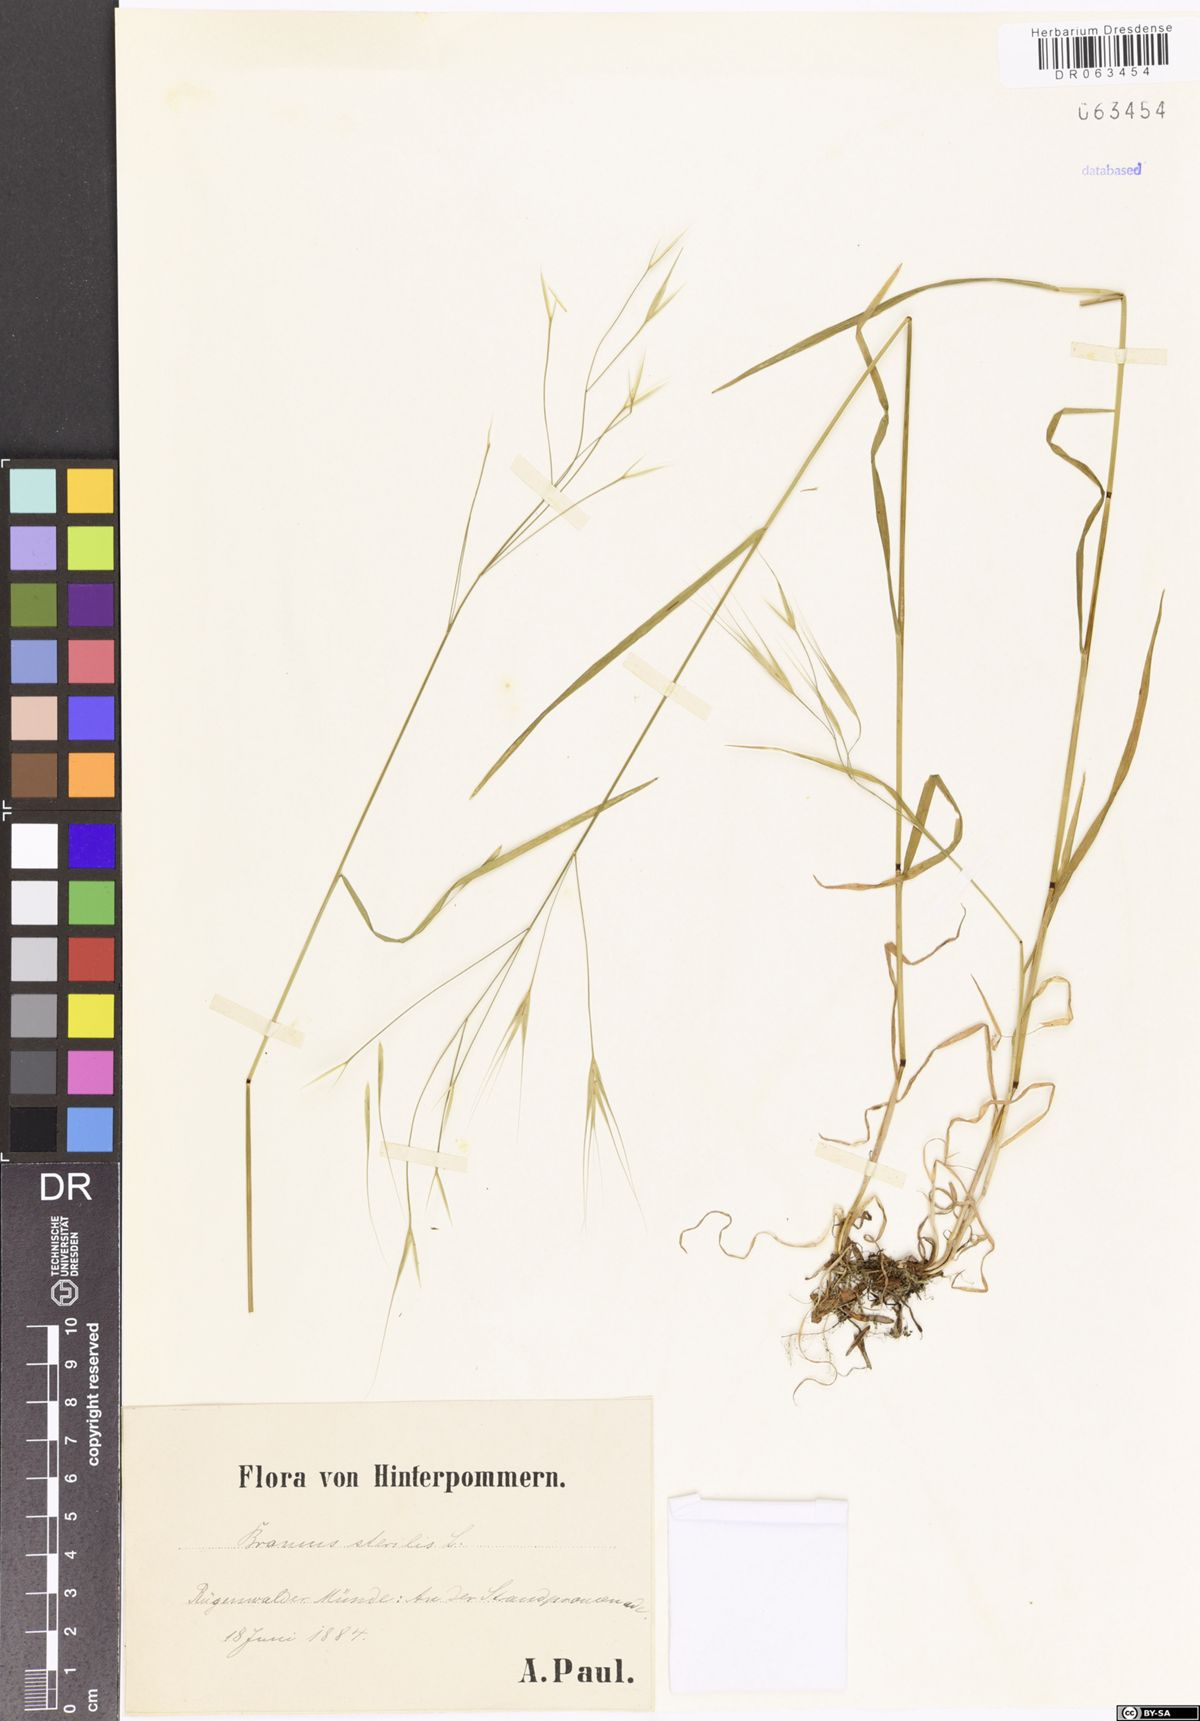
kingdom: Plantae
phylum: Tracheophyta
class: Liliopsida
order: Poales
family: Poaceae
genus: Bromus
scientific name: Bromus sterilis
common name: Poverty brome
